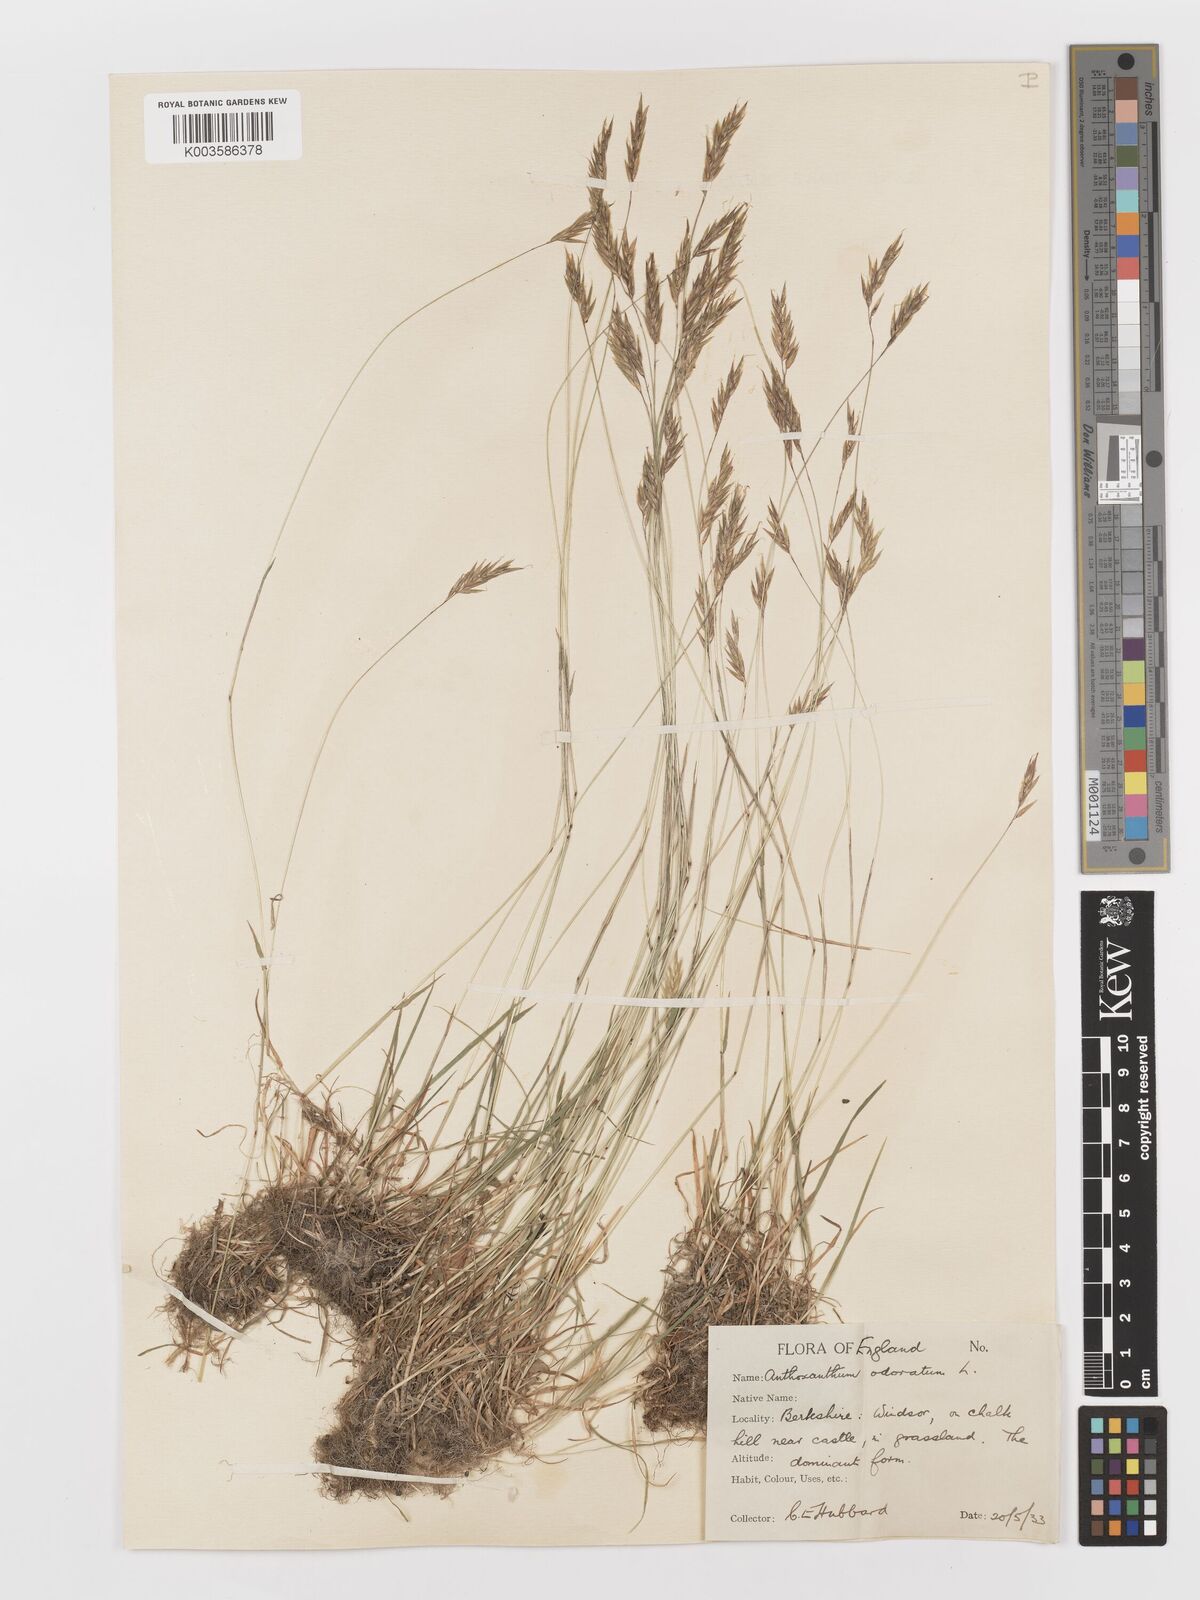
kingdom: Plantae
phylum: Tracheophyta
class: Liliopsida
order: Poales
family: Poaceae
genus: Anthoxanthum
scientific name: Anthoxanthum odoratum
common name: Sweet vernalgrass
